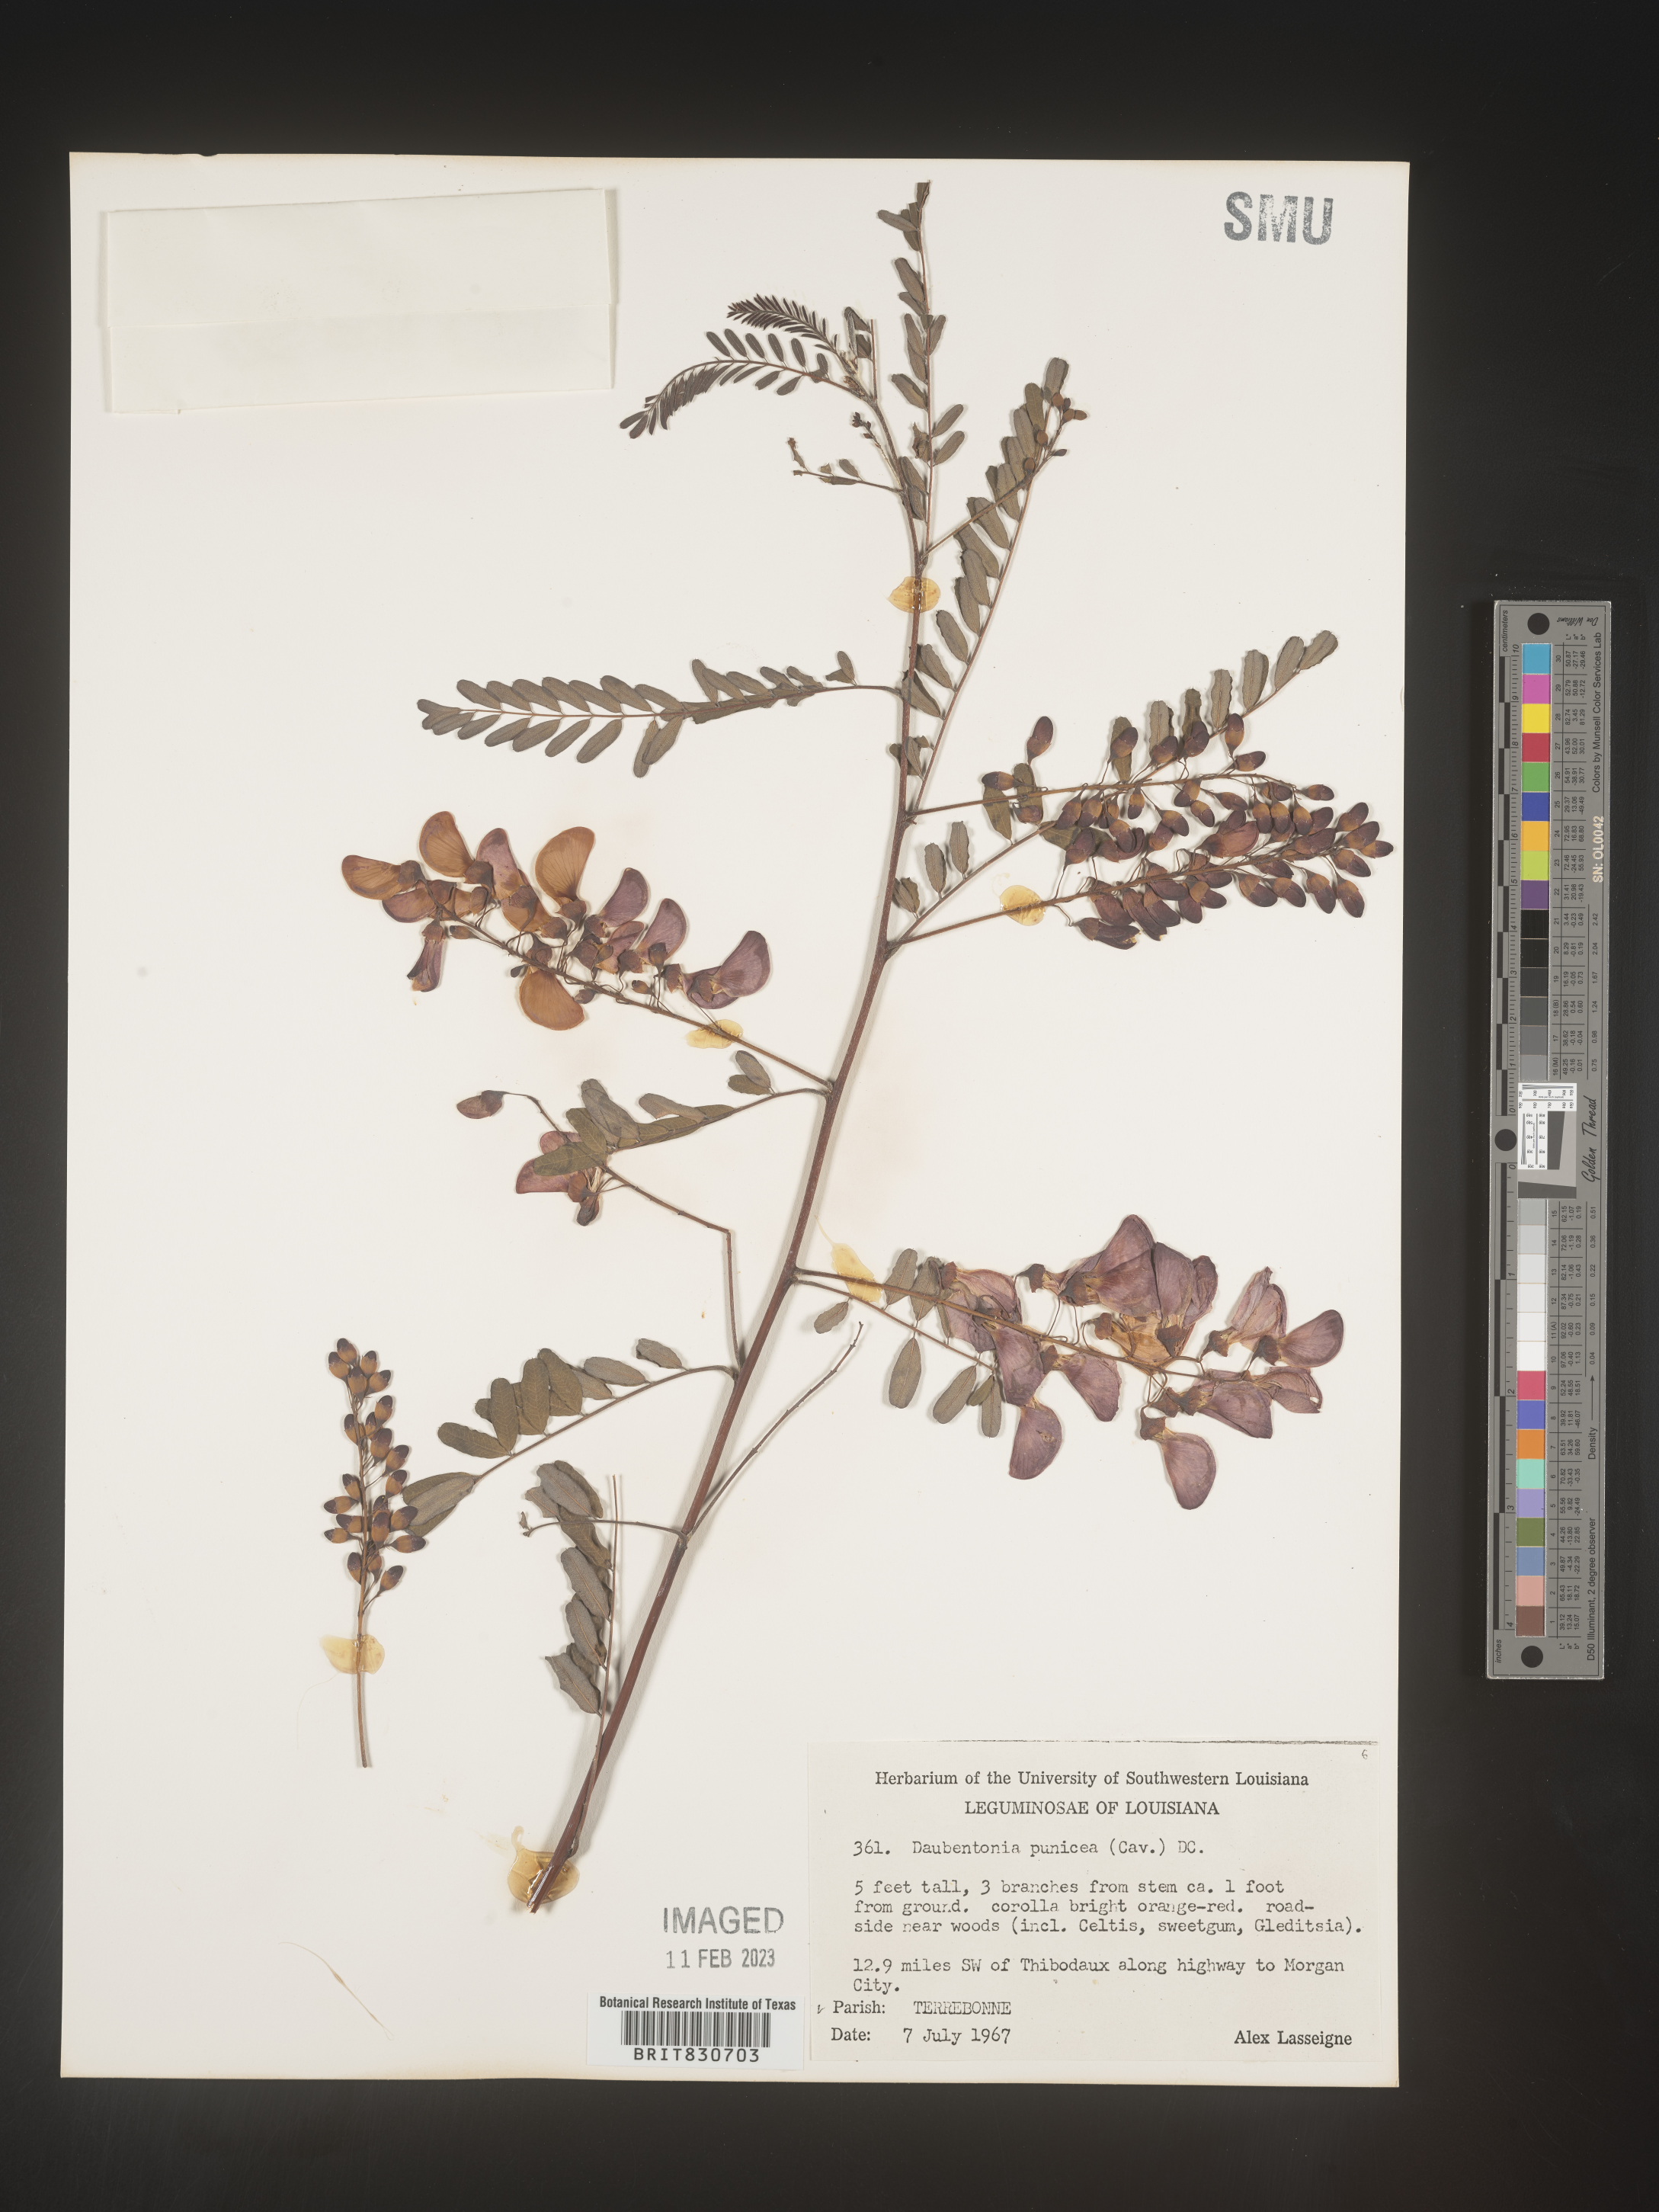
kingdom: Plantae
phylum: Tracheophyta
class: Magnoliopsida
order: Fabales
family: Fabaceae
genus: Sesbania
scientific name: Sesbania punicea
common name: Rattlebox
